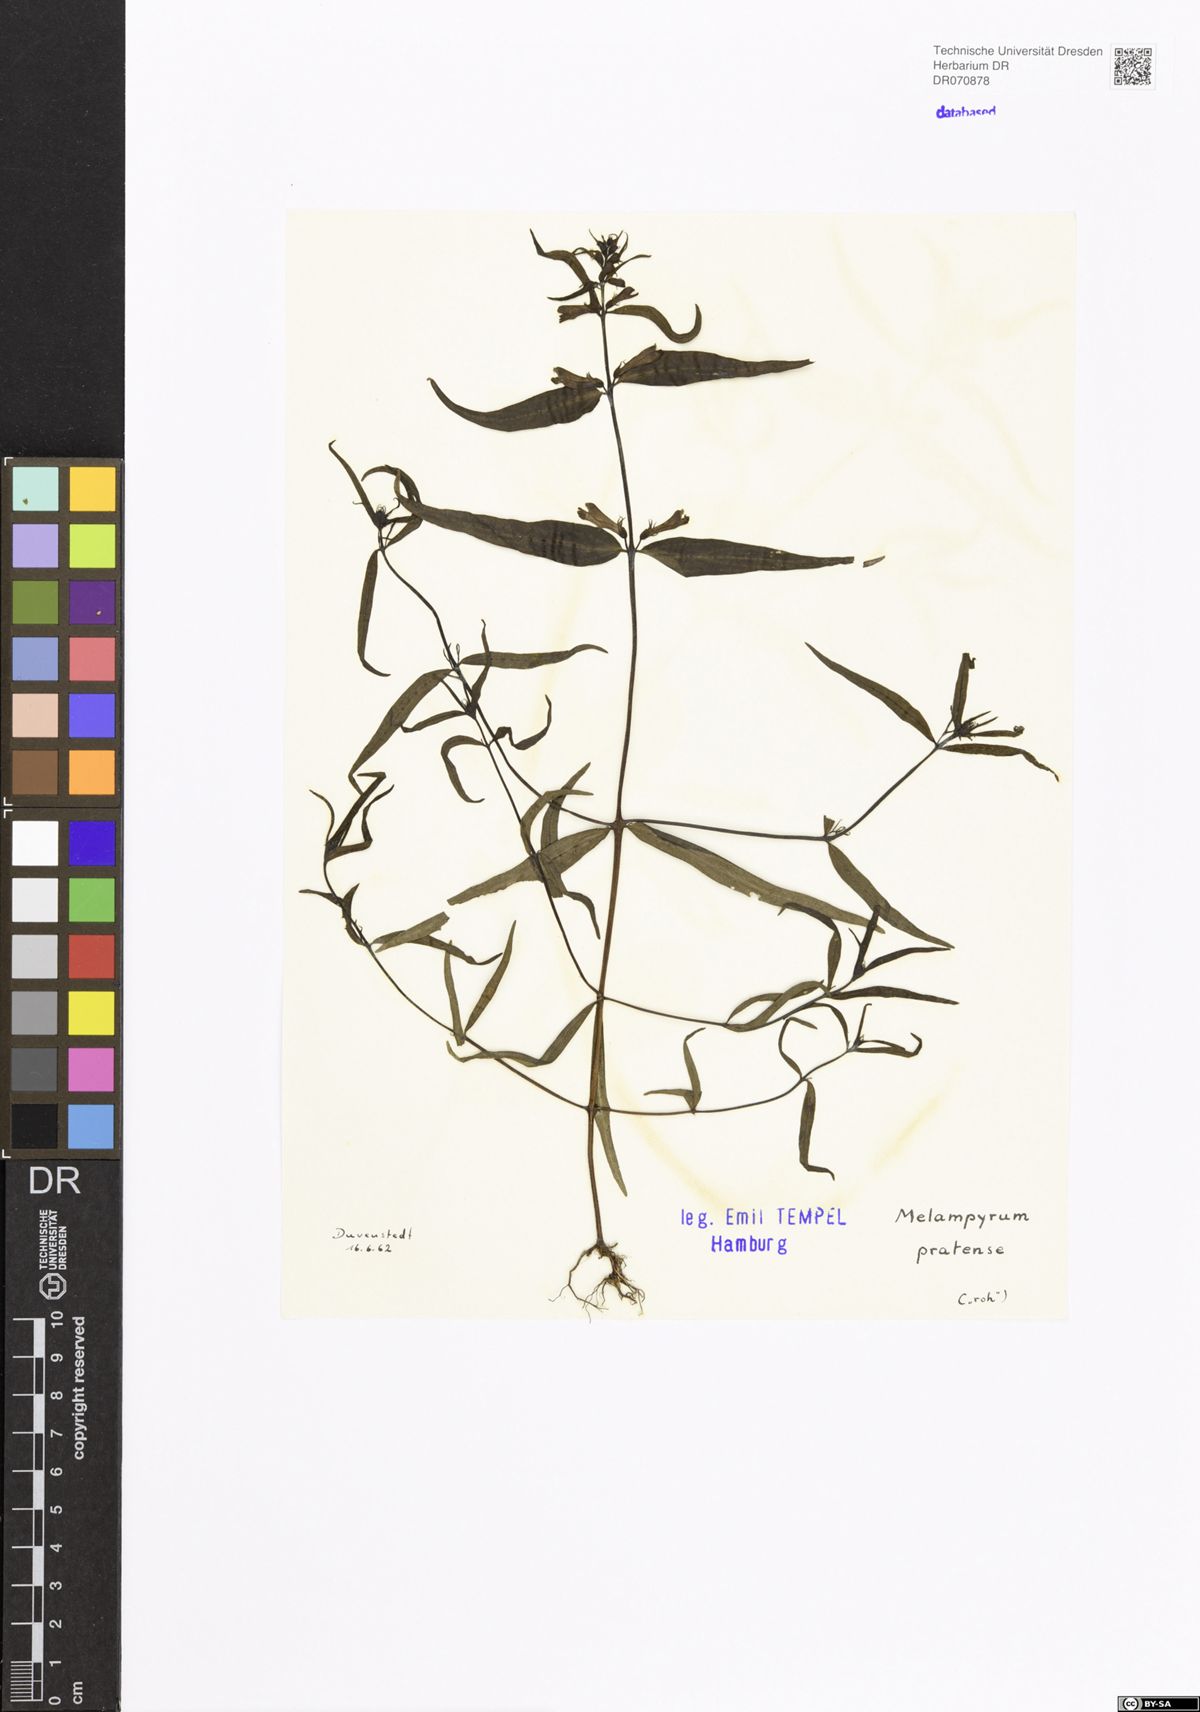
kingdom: Plantae
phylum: Tracheophyta
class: Magnoliopsida
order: Lamiales
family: Orobanchaceae
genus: Melampyrum
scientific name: Melampyrum pratense
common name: Common cow-wheat
